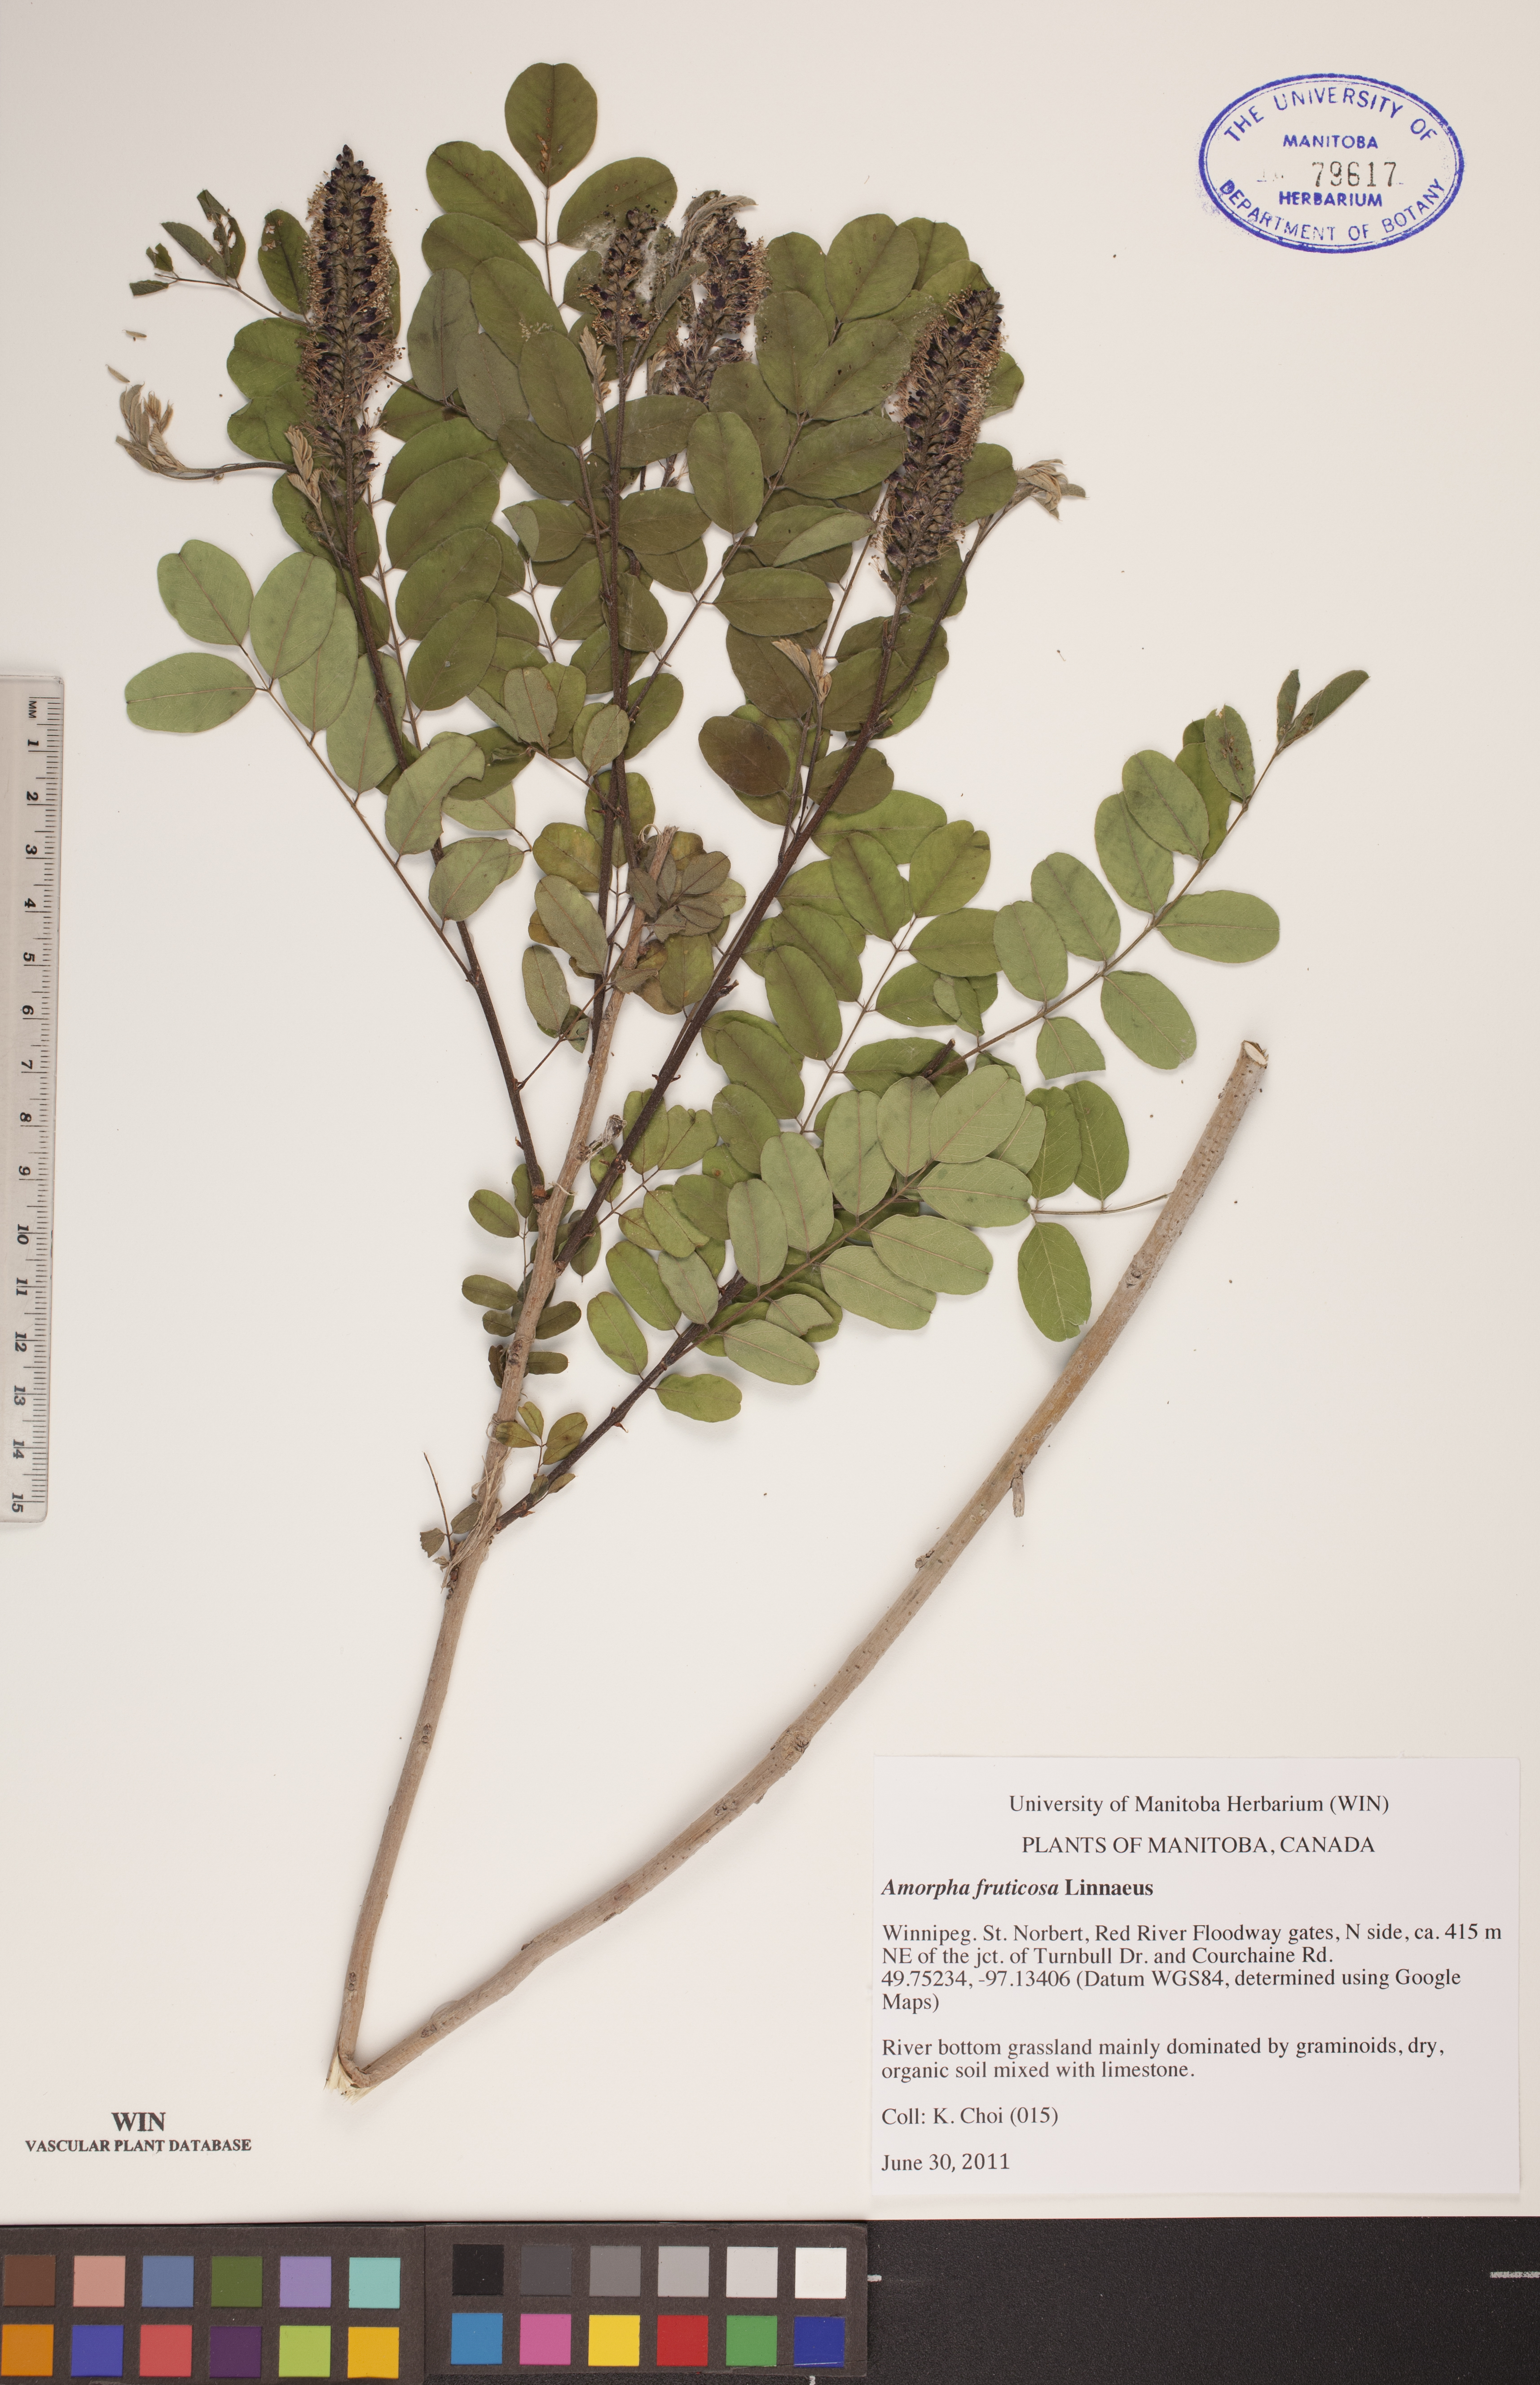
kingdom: Plantae
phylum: Tracheophyta
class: Magnoliopsida
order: Fabales
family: Fabaceae
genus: Amorpha
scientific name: Amorpha fruticosa
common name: False indigo
